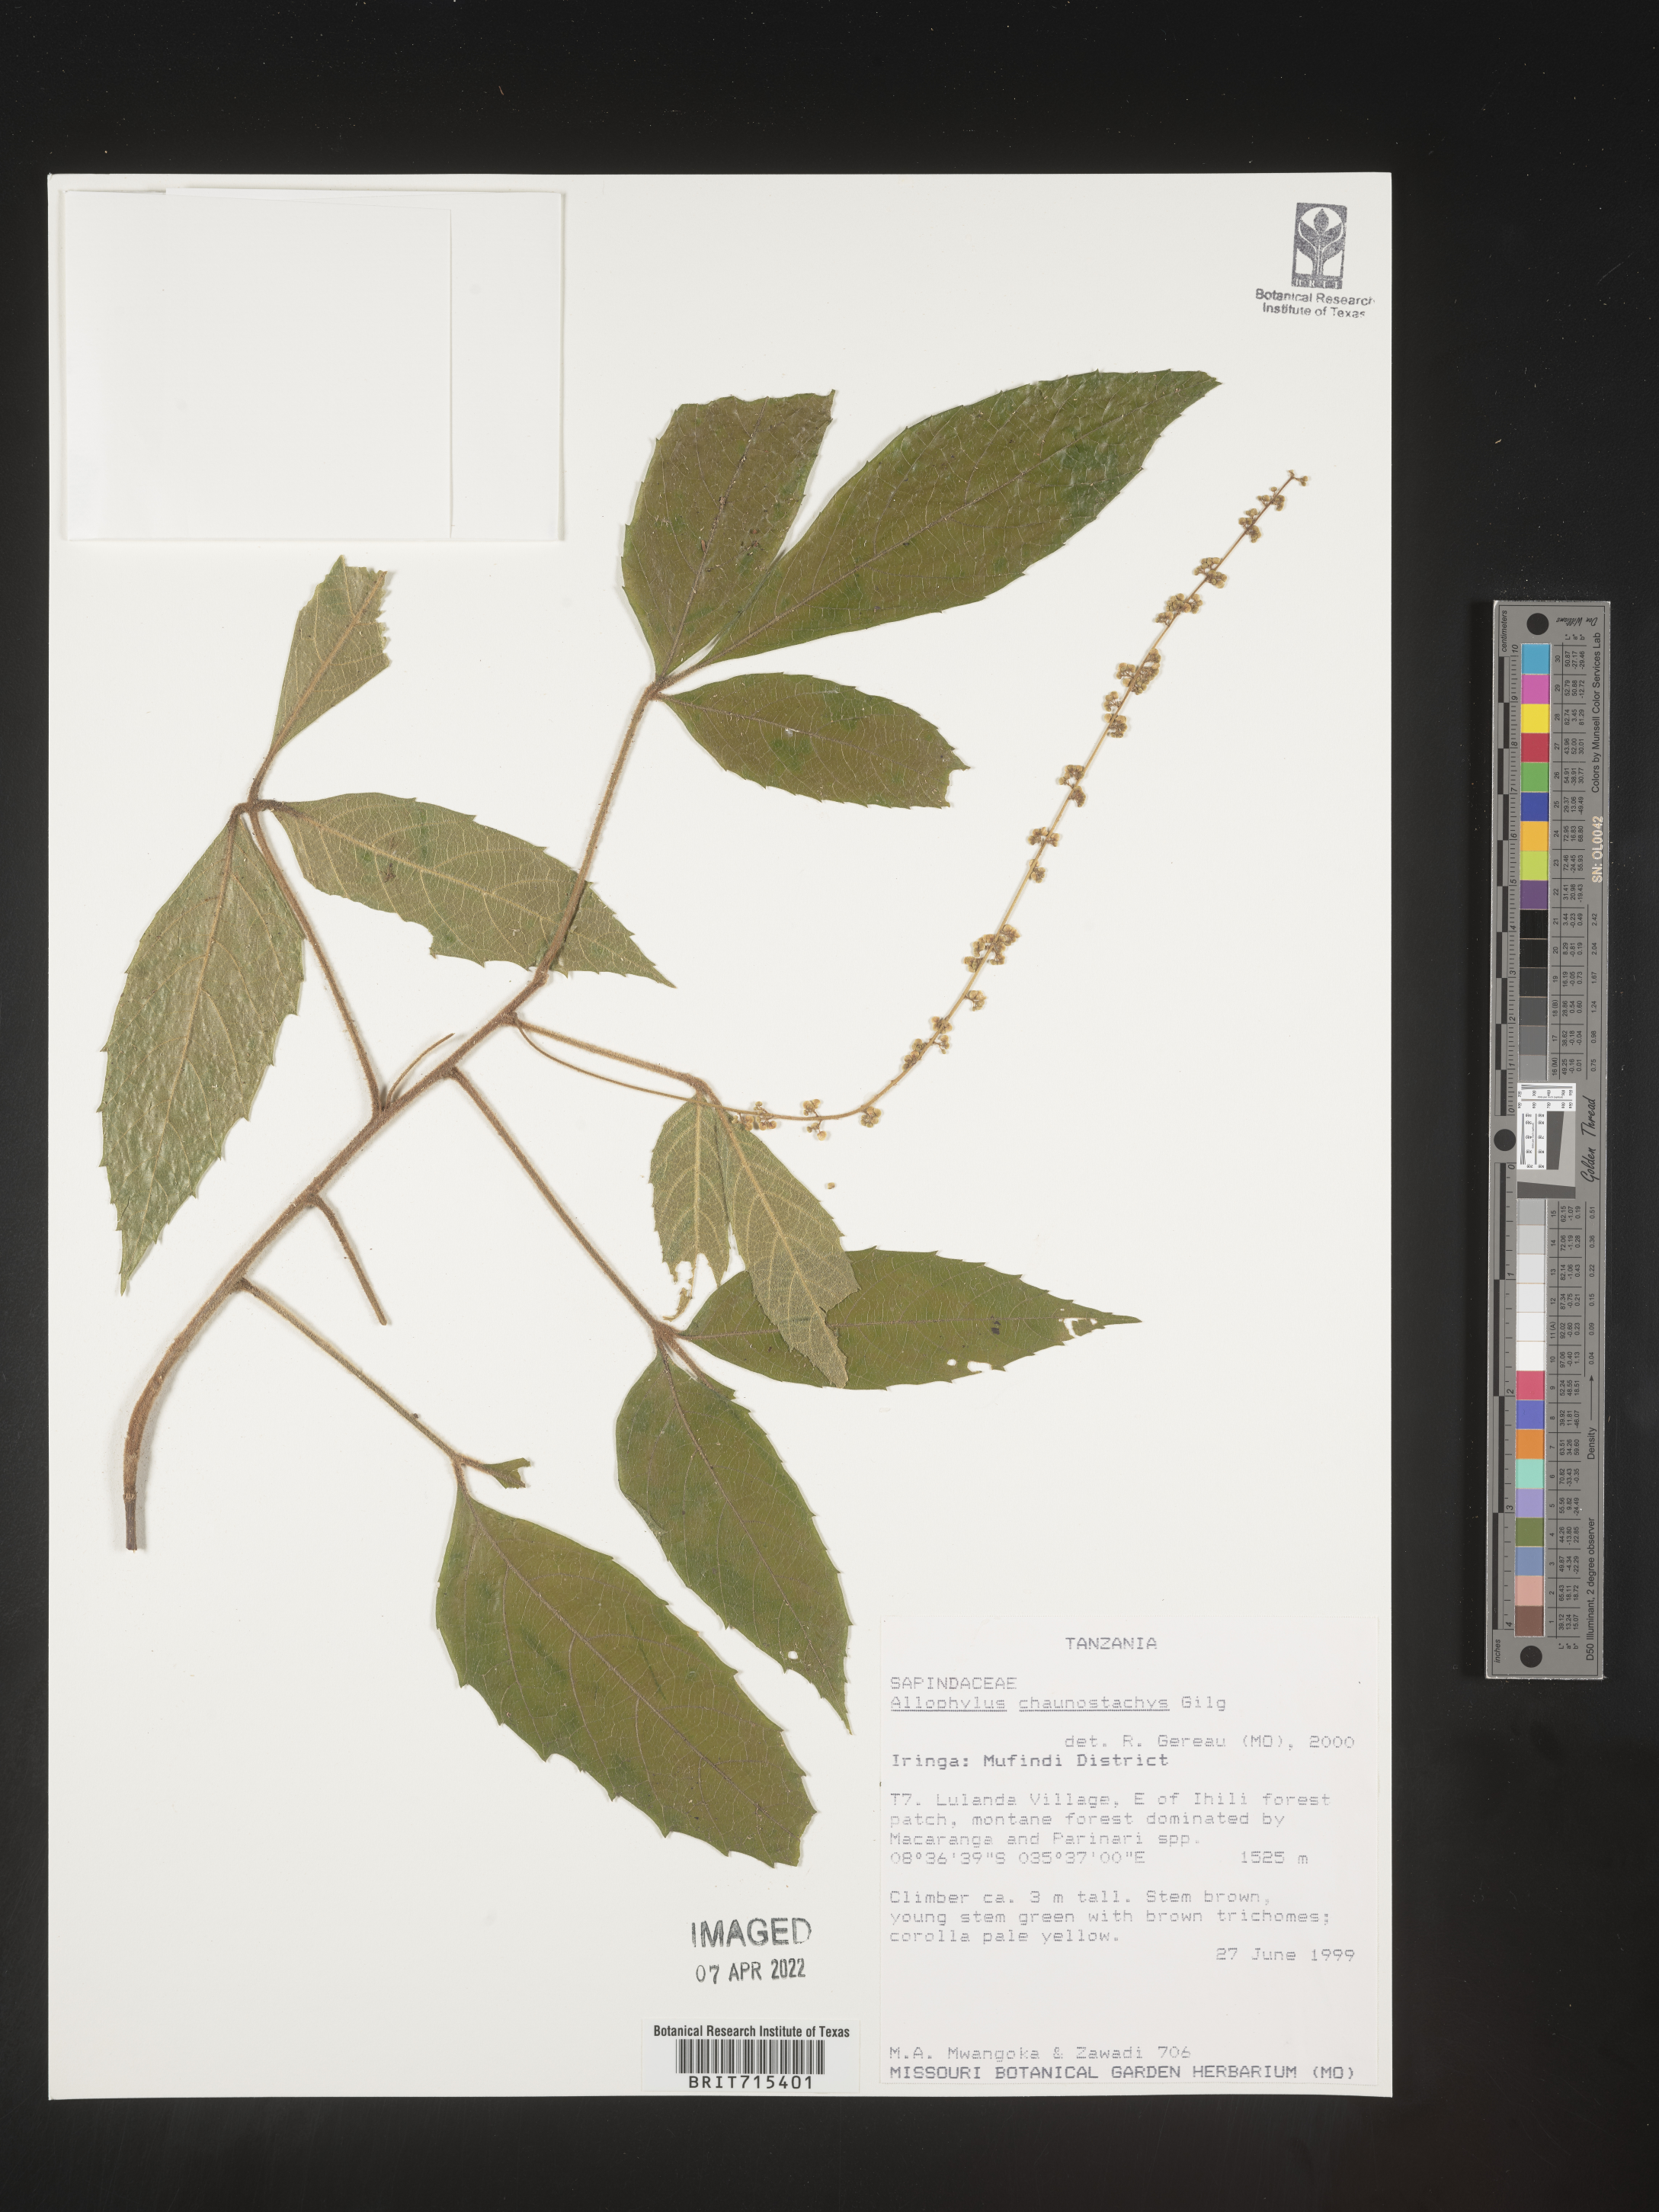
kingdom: Plantae
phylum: Tracheophyta
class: Magnoliopsida
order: Sapindales
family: Sapindaceae
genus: Allophylus
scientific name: Allophylus
